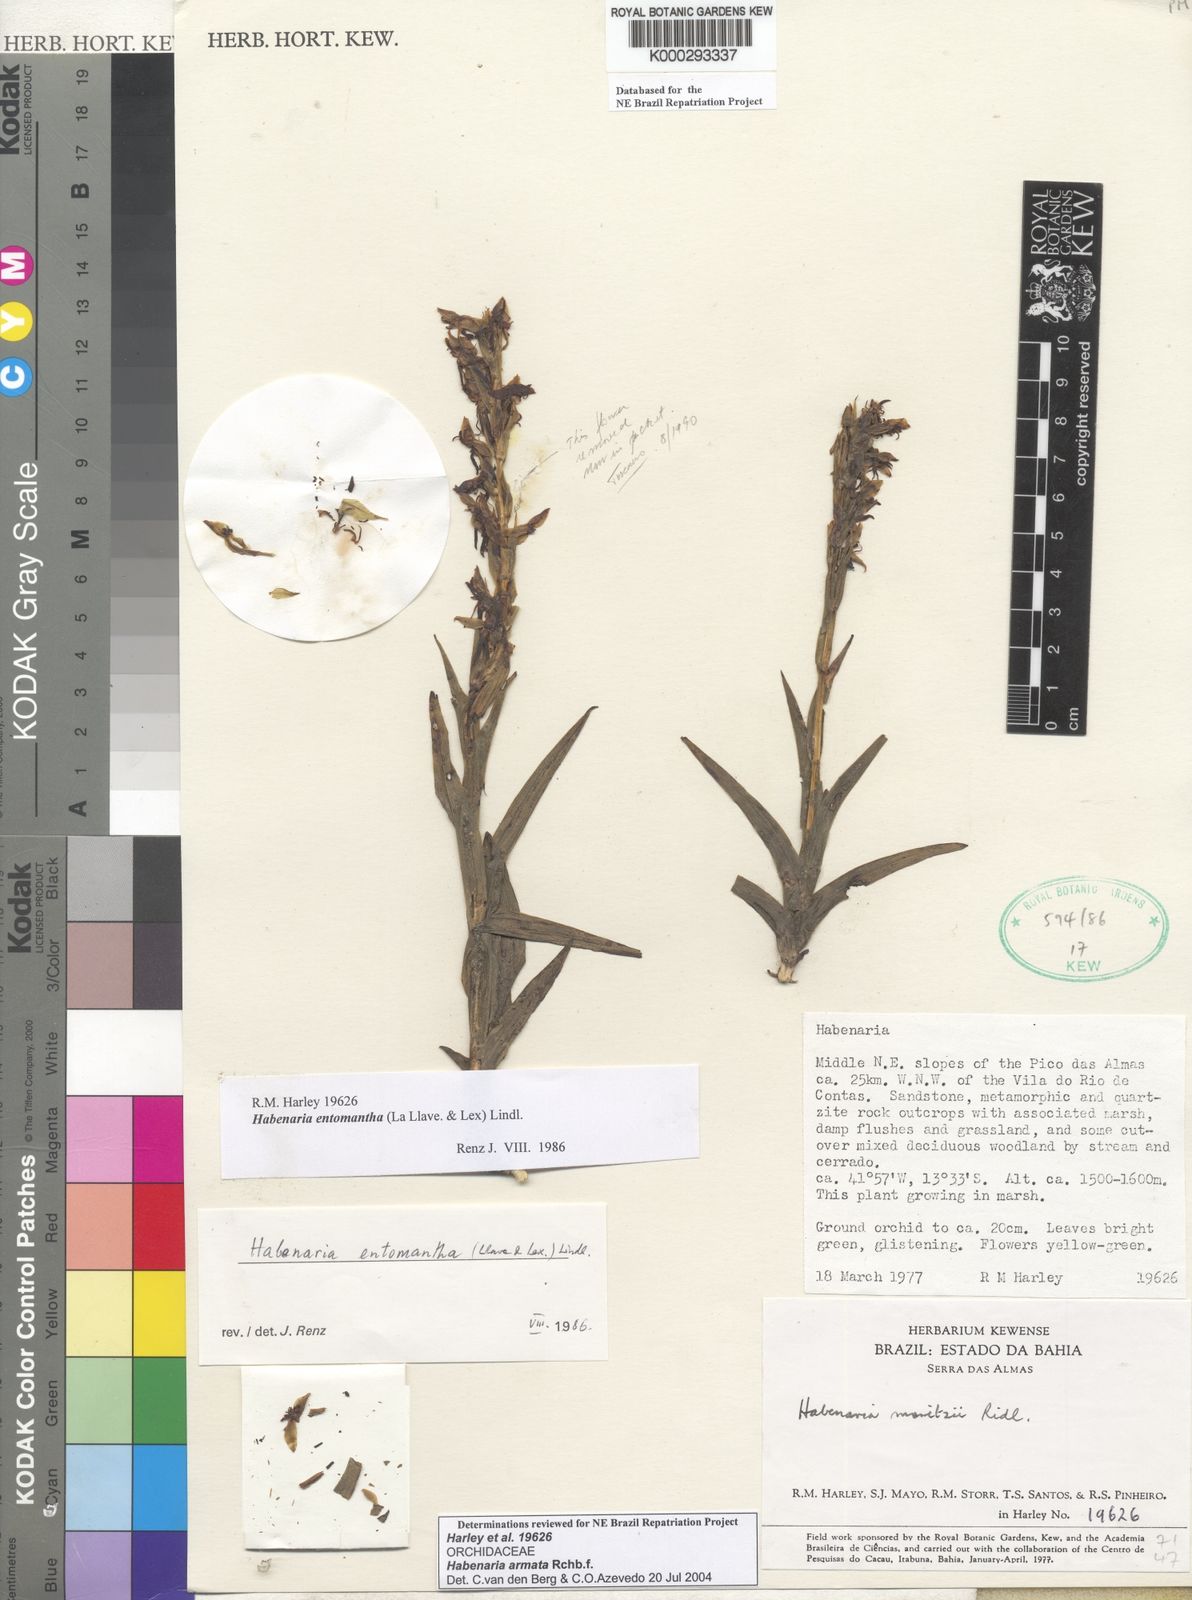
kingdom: Plantae
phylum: Tracheophyta
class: Liliopsida
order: Asparagales
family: Orchidaceae
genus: Habenaria
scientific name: Habenaria entomantha
